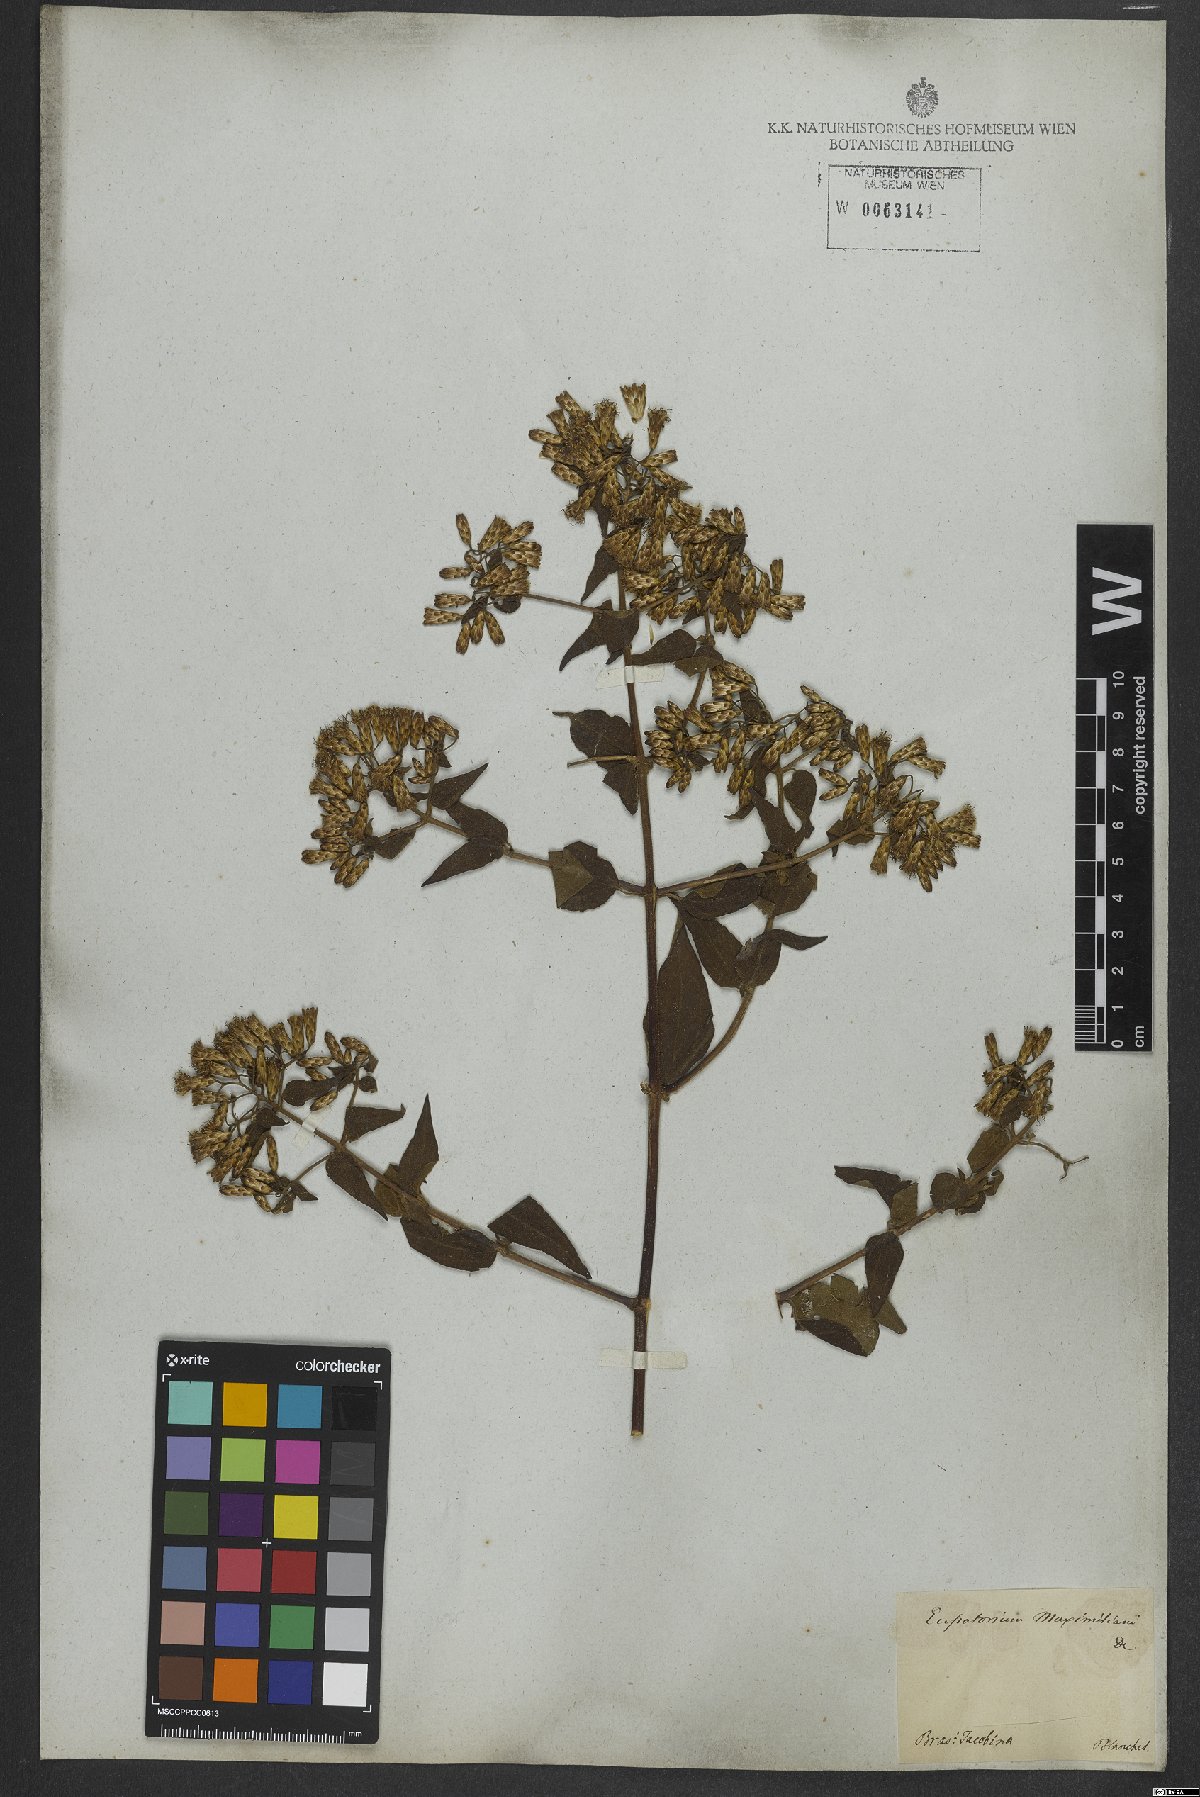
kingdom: Plantae
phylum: Tracheophyta
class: Magnoliopsida
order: Asterales
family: Asteraceae
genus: Chromolaena
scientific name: Chromolaena odorata
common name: Siamweed
